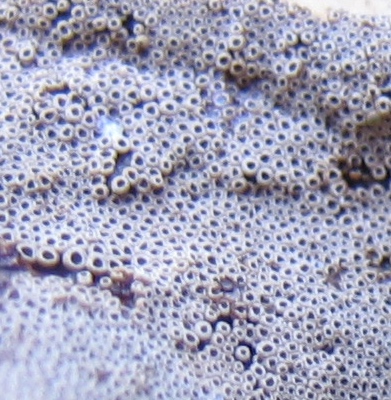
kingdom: Fungi
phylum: Basidiomycota
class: Agaricomycetes
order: Agaricales
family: Pleurotaceae
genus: Resupinatus
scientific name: Resupinatus poriaeformis
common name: tæpperør
